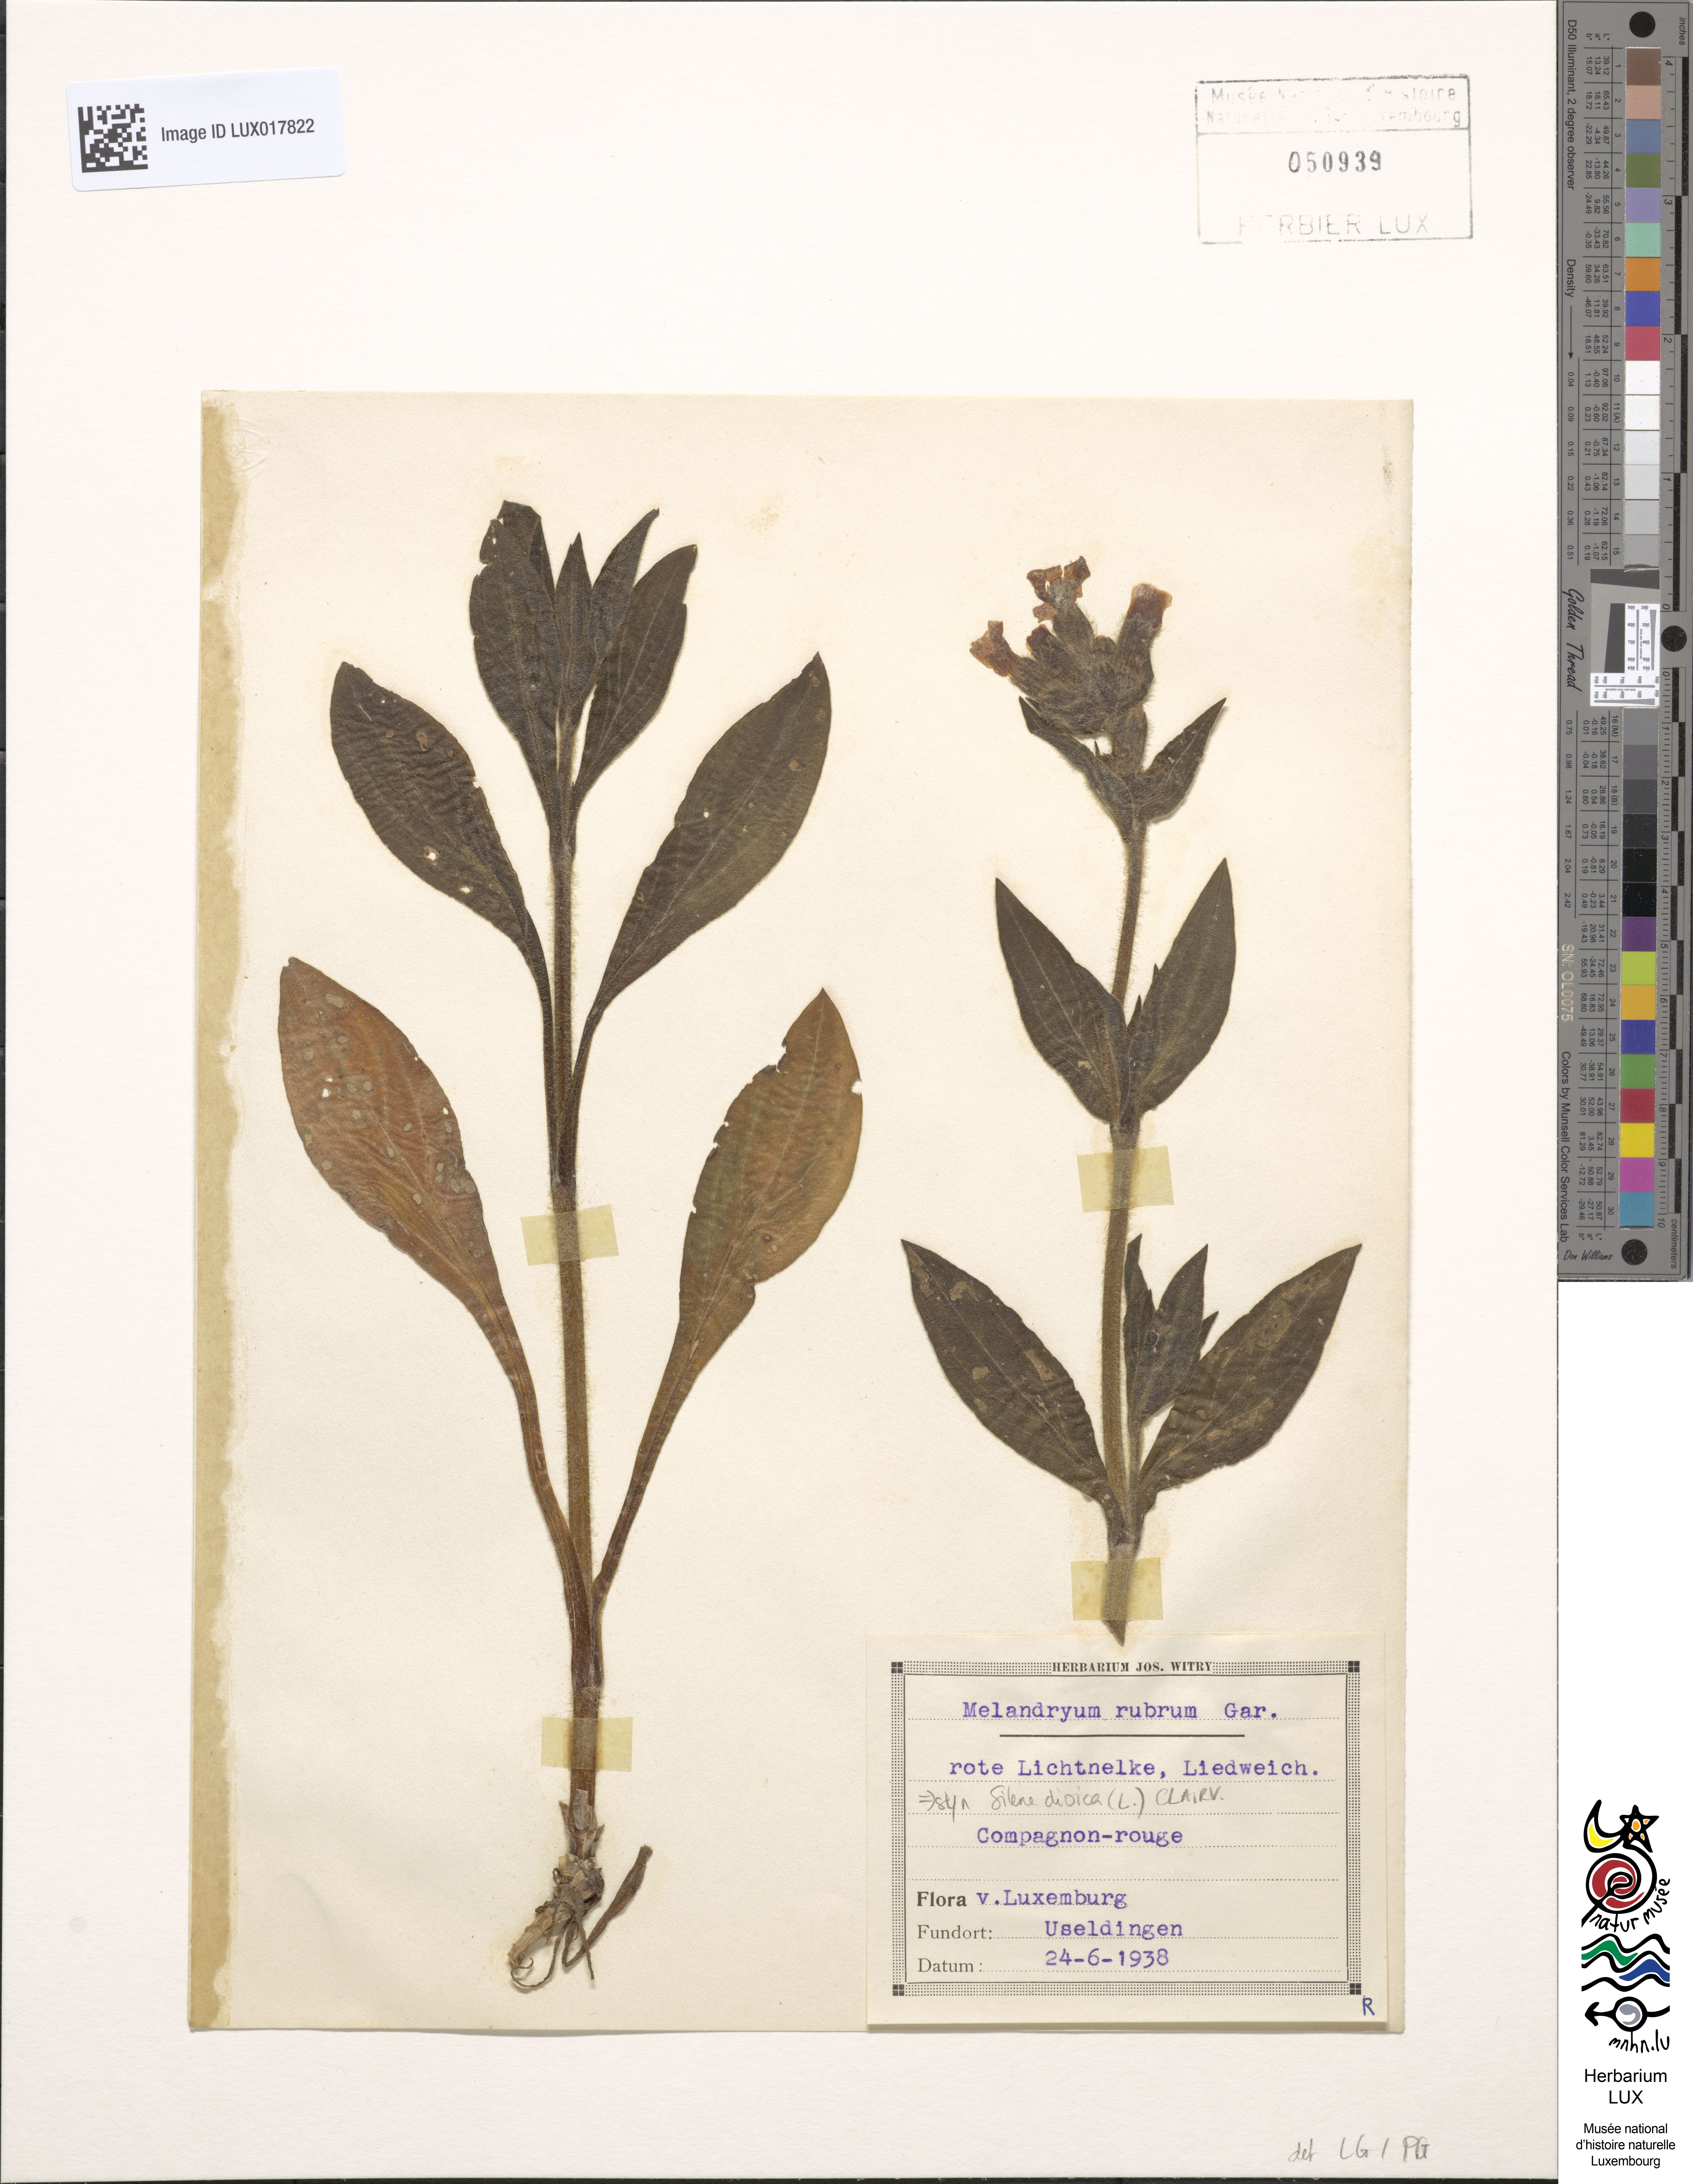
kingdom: Plantae
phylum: Tracheophyta
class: Magnoliopsida
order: Caryophyllales
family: Caryophyllaceae
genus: Silene
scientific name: Silene dioica
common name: Red campion
